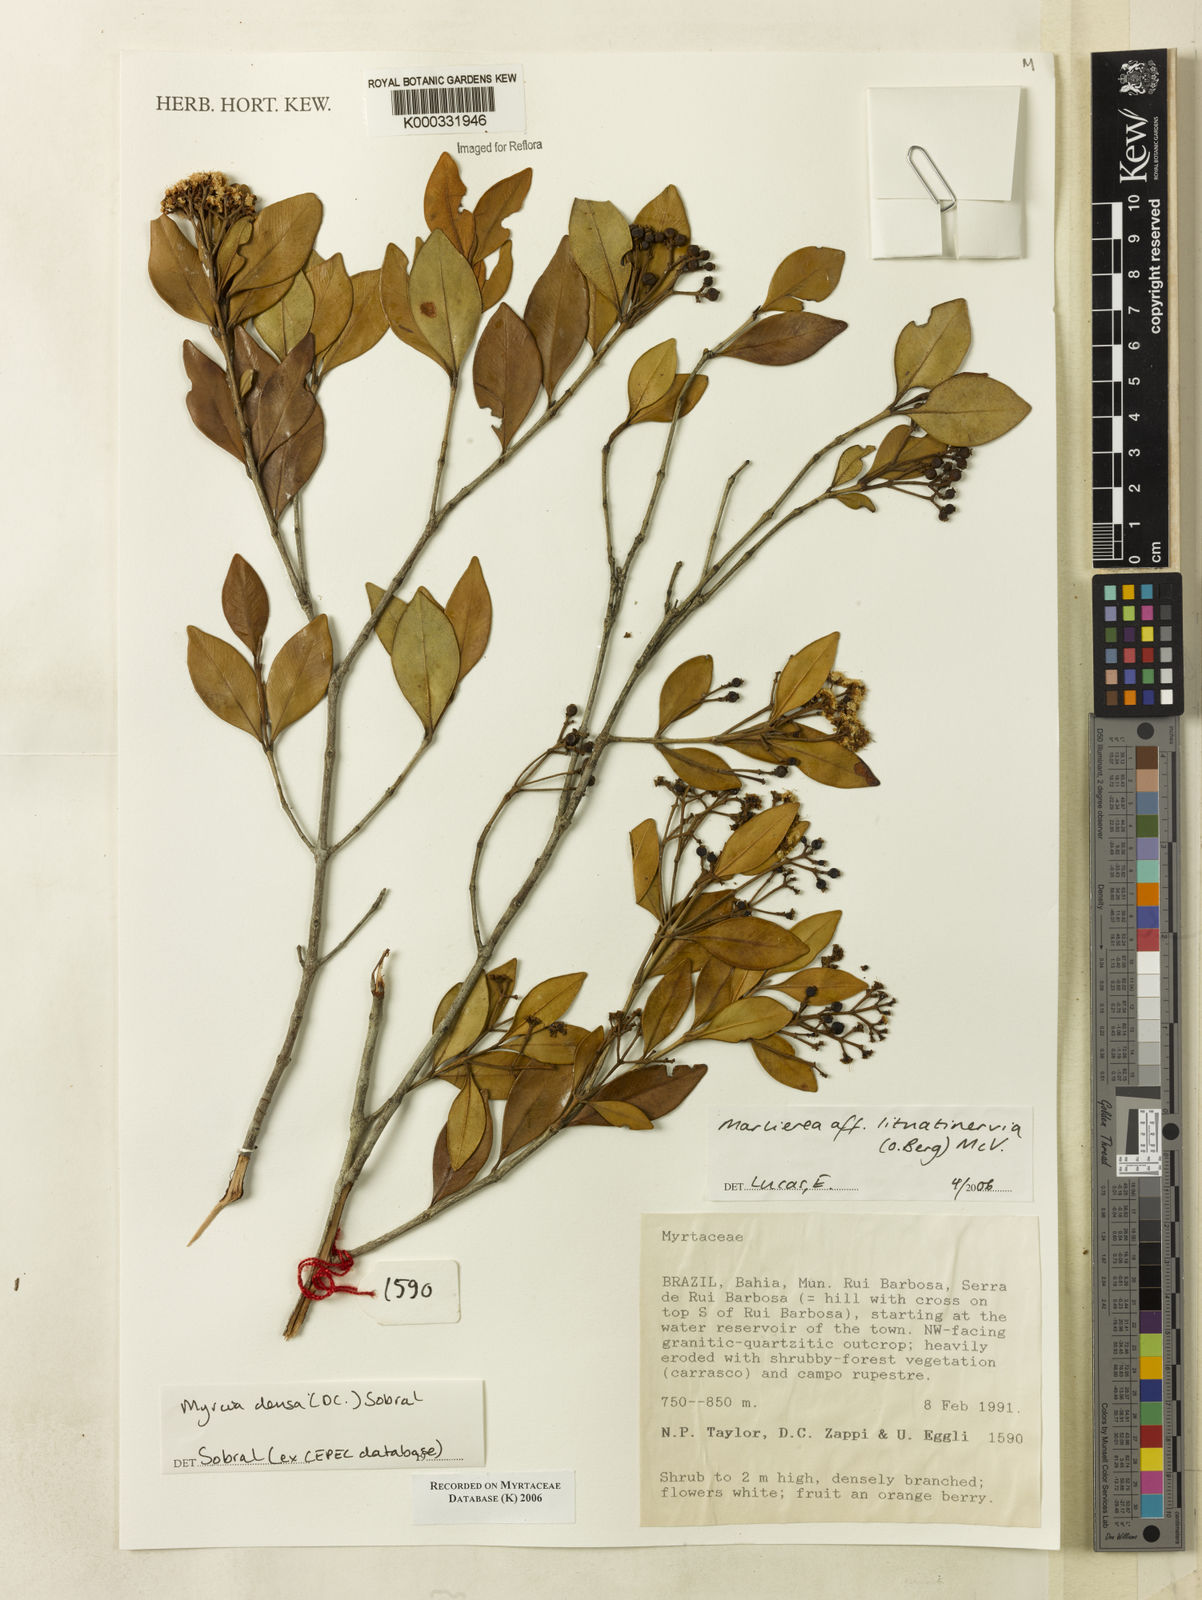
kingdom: Plantae
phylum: Tracheophyta
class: Magnoliopsida
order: Myrtales
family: Myrtaceae
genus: Myrcia
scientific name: Myrcia lituatinervia
